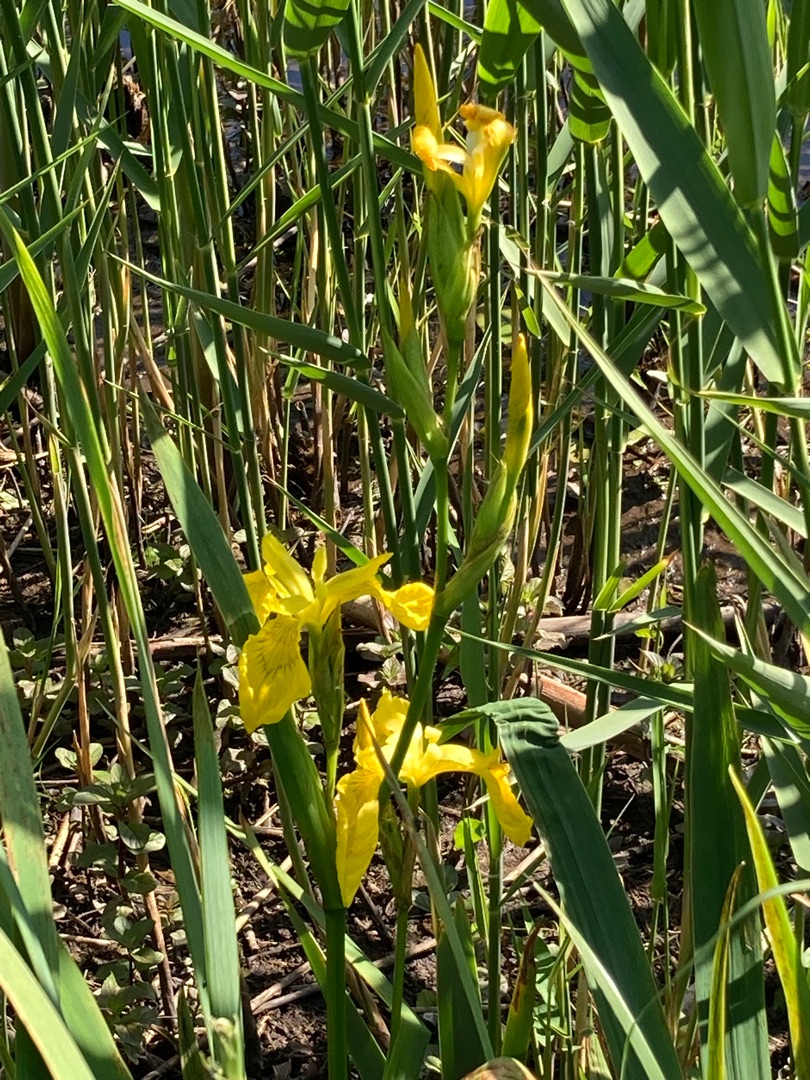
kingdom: Plantae
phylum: Tracheophyta
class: Liliopsida
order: Asparagales
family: Iridaceae
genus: Iris
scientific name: Iris pseudacorus
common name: Gul iris
